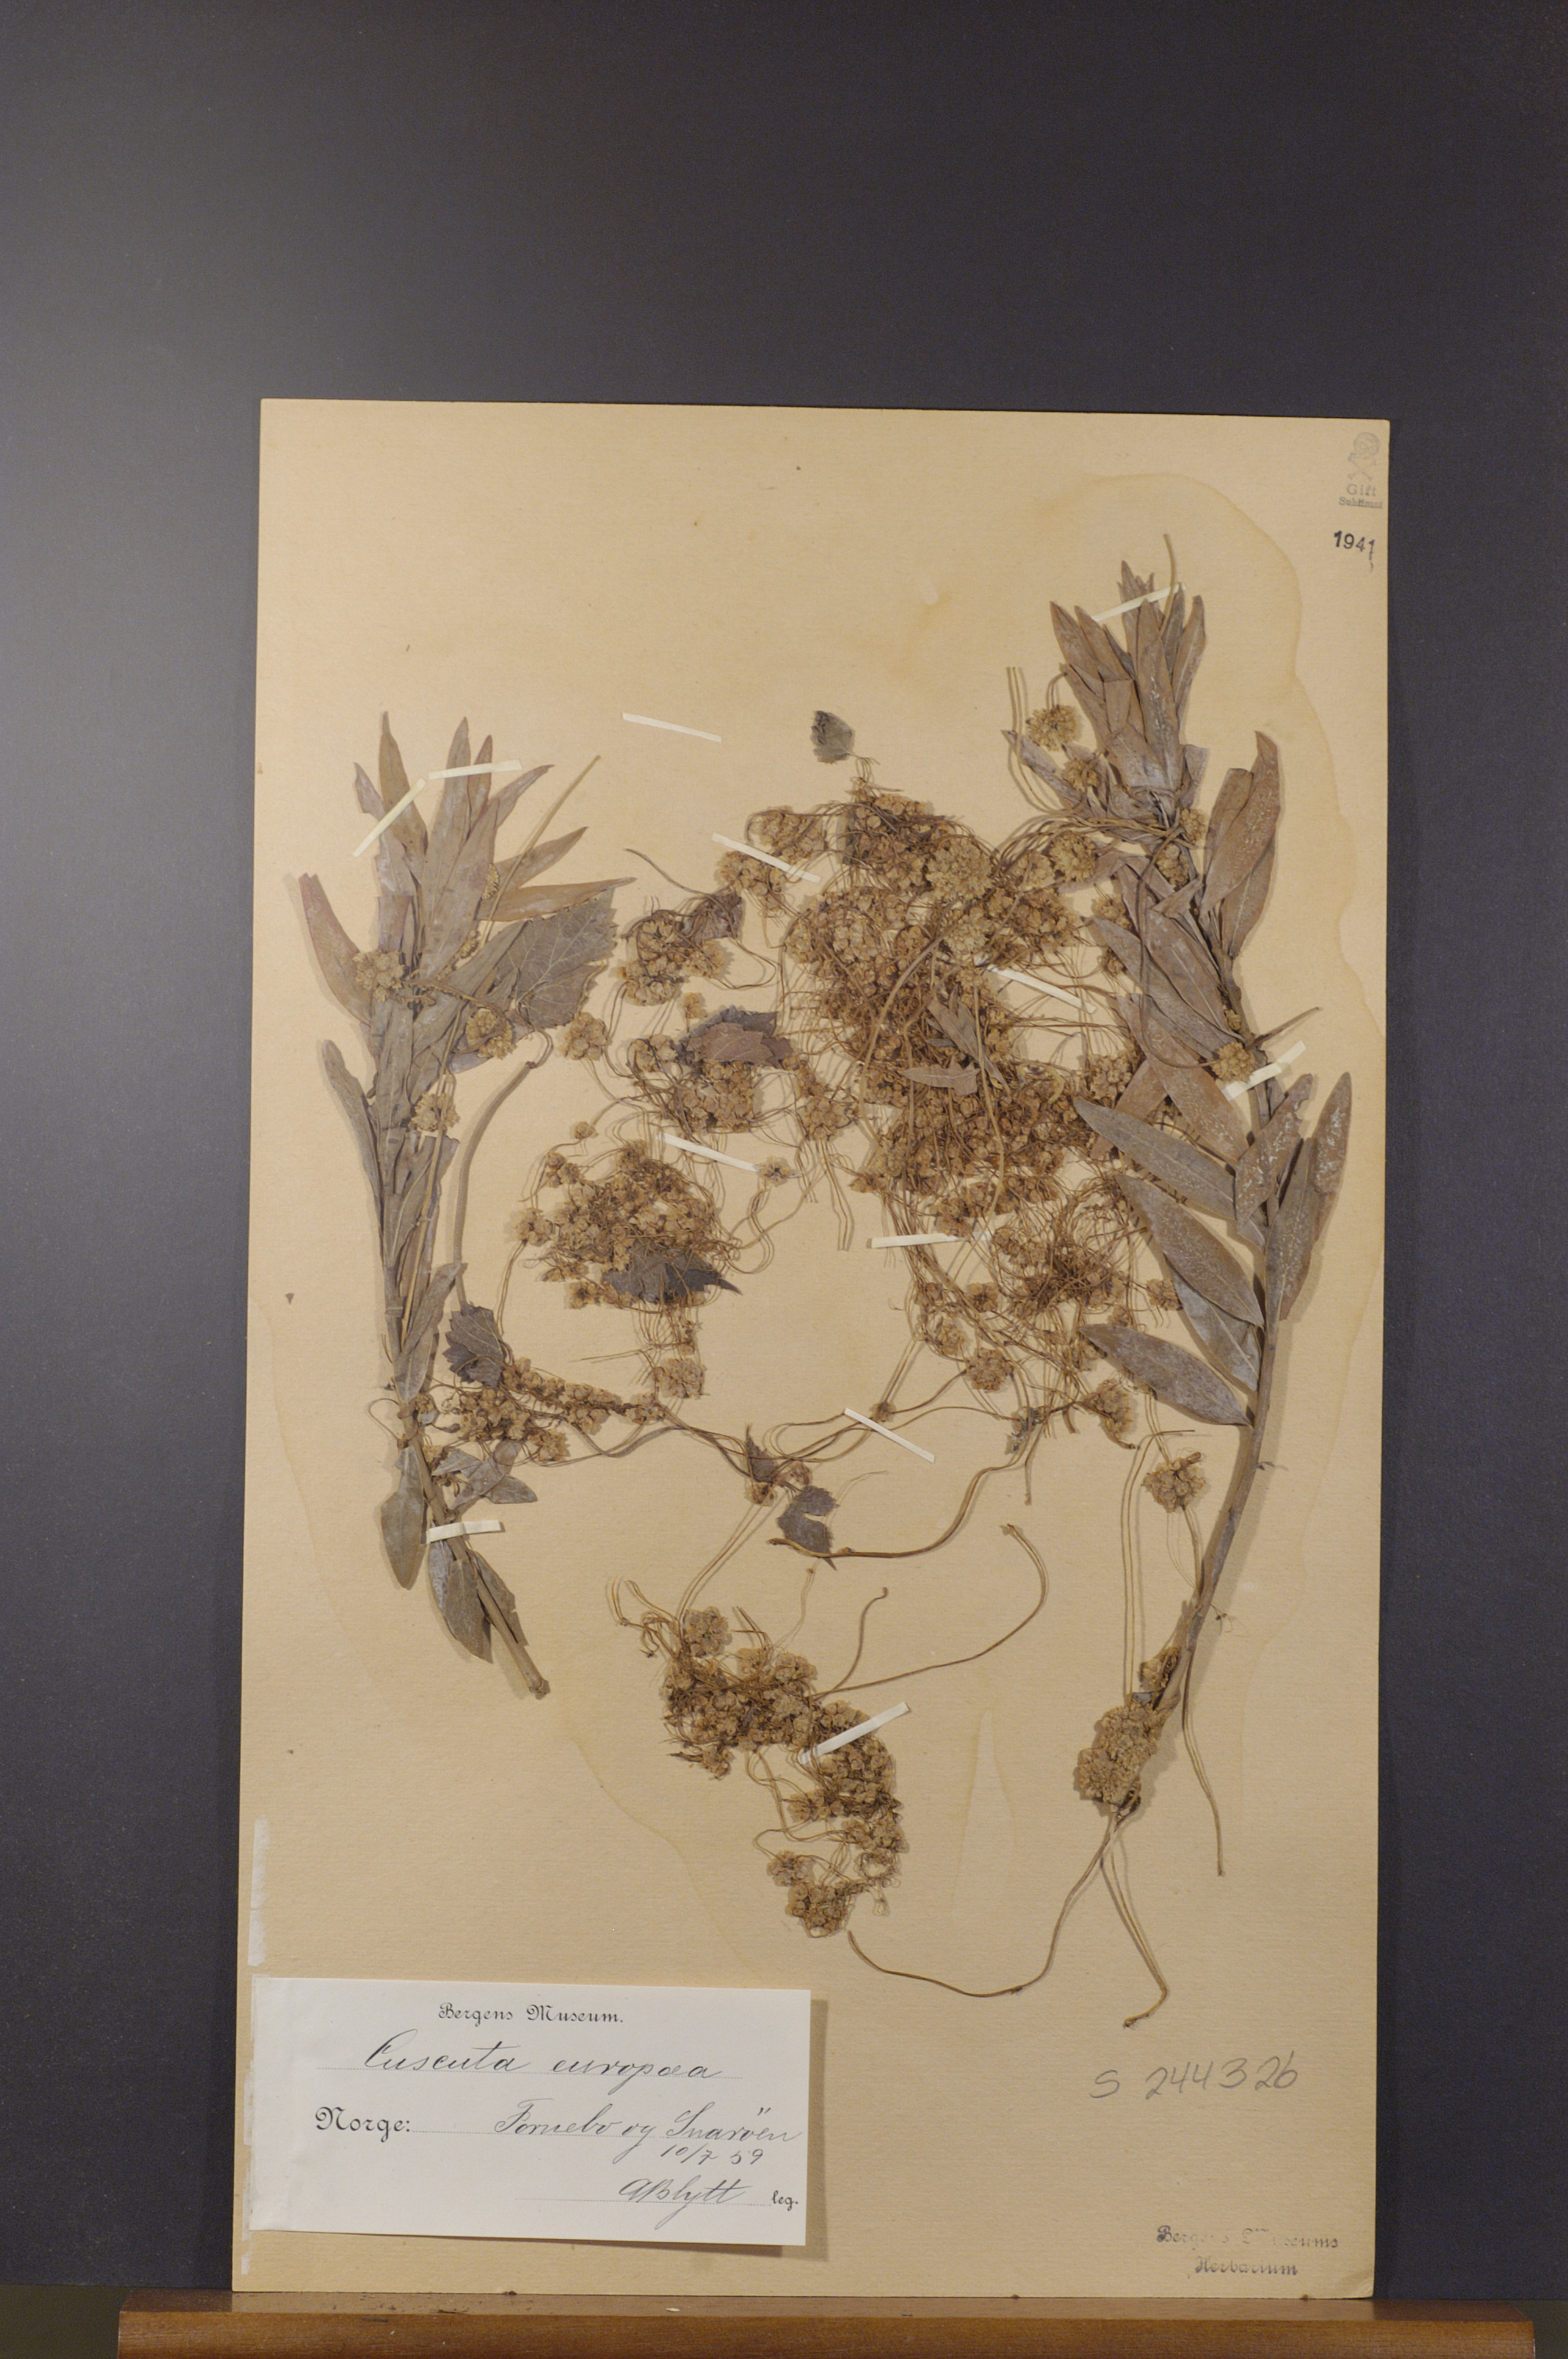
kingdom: Plantae
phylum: Tracheophyta
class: Magnoliopsida
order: Solanales
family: Convolvulaceae
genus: Cuscuta
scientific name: Cuscuta europaea
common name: Greater dodder
